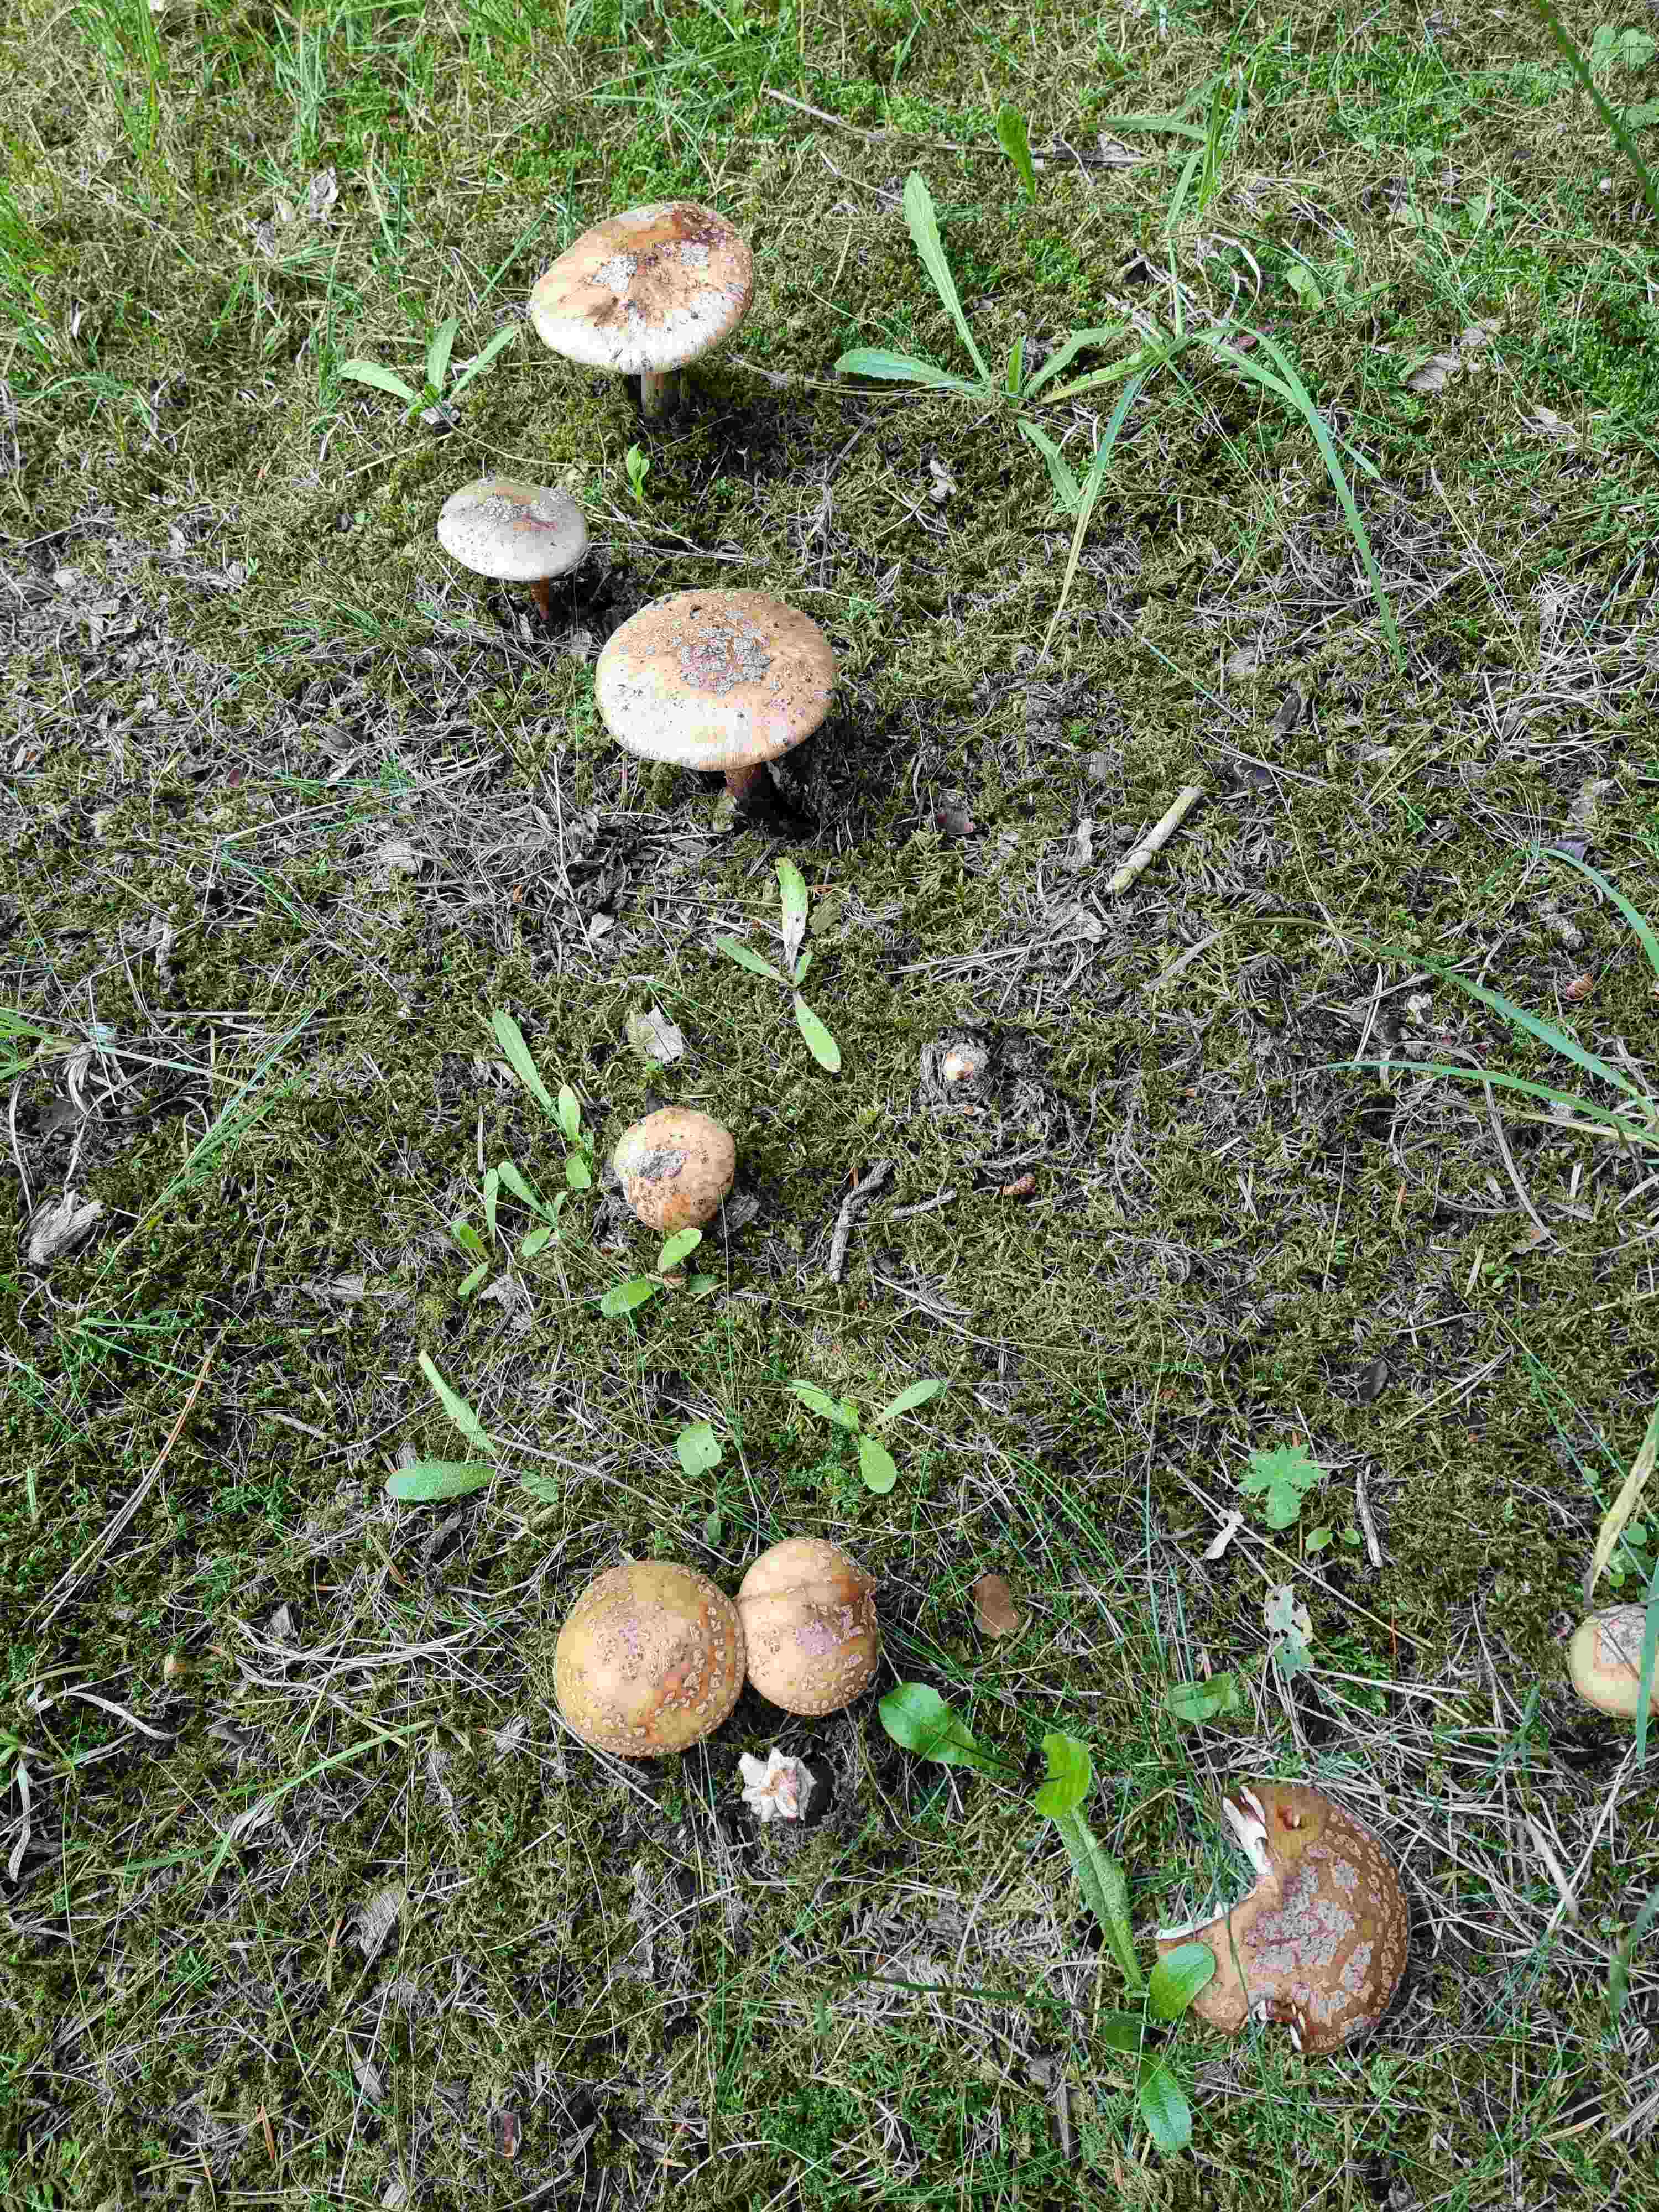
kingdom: Fungi
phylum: Basidiomycota
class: Agaricomycetes
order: Agaricales
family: Amanitaceae
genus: Amanita
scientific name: Amanita rubescens
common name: rødmende fluesvamp
